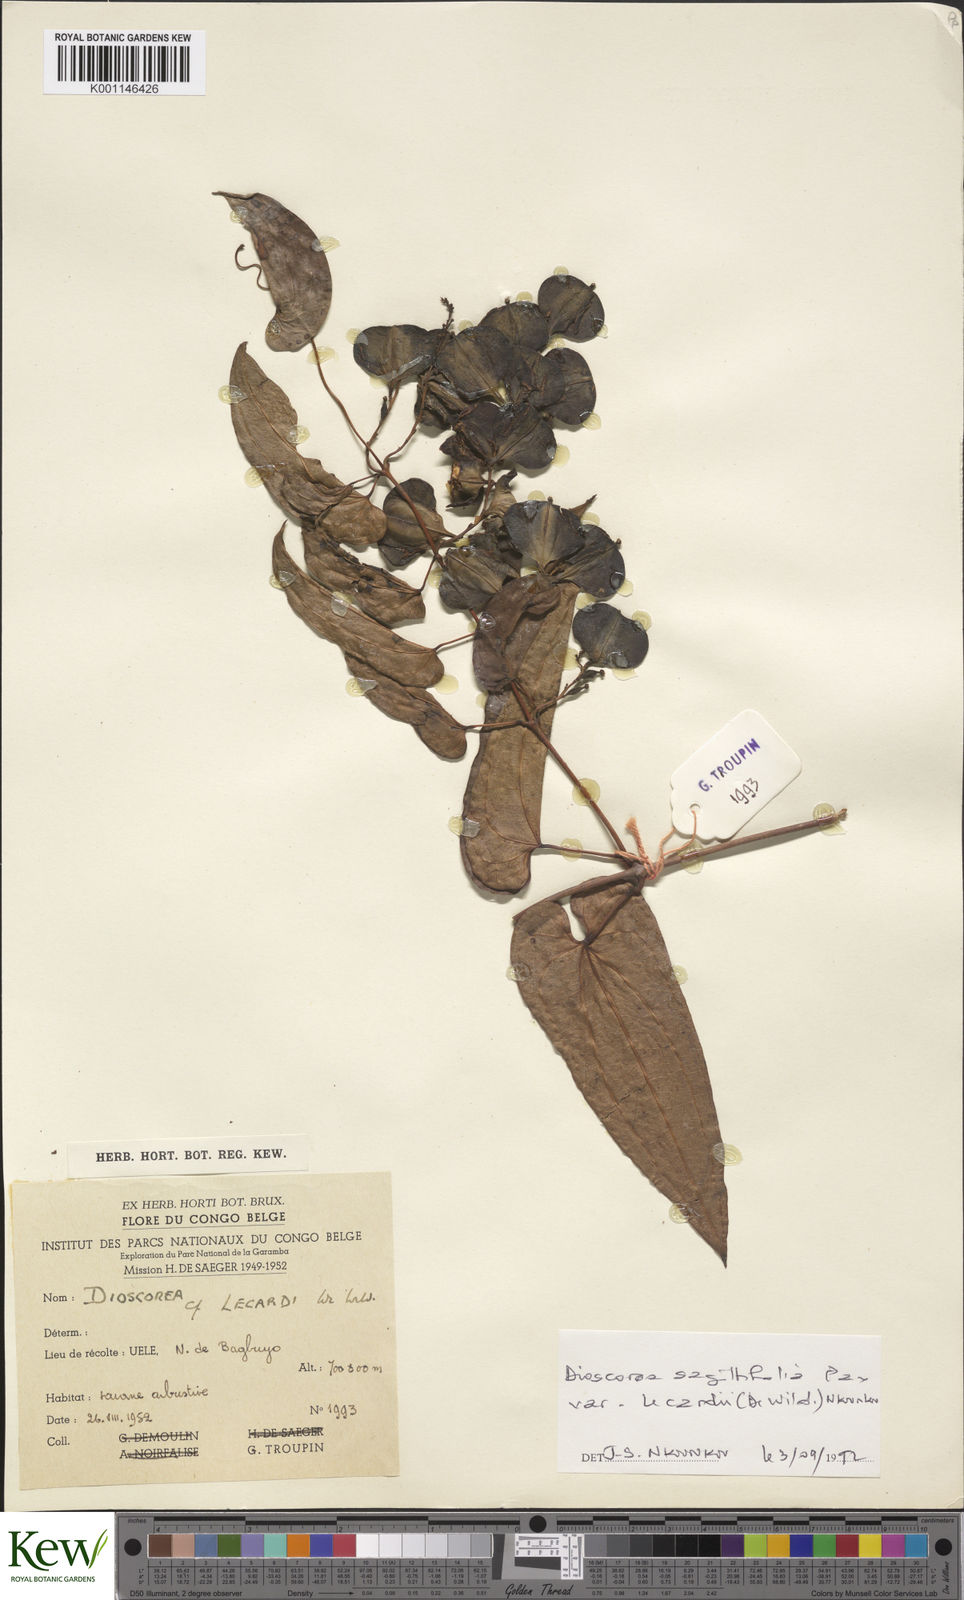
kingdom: Plantae
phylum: Tracheophyta
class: Liliopsida
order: Dioscoreales
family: Dioscoreaceae
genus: Dioscorea
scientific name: Dioscorea sagittifolia
